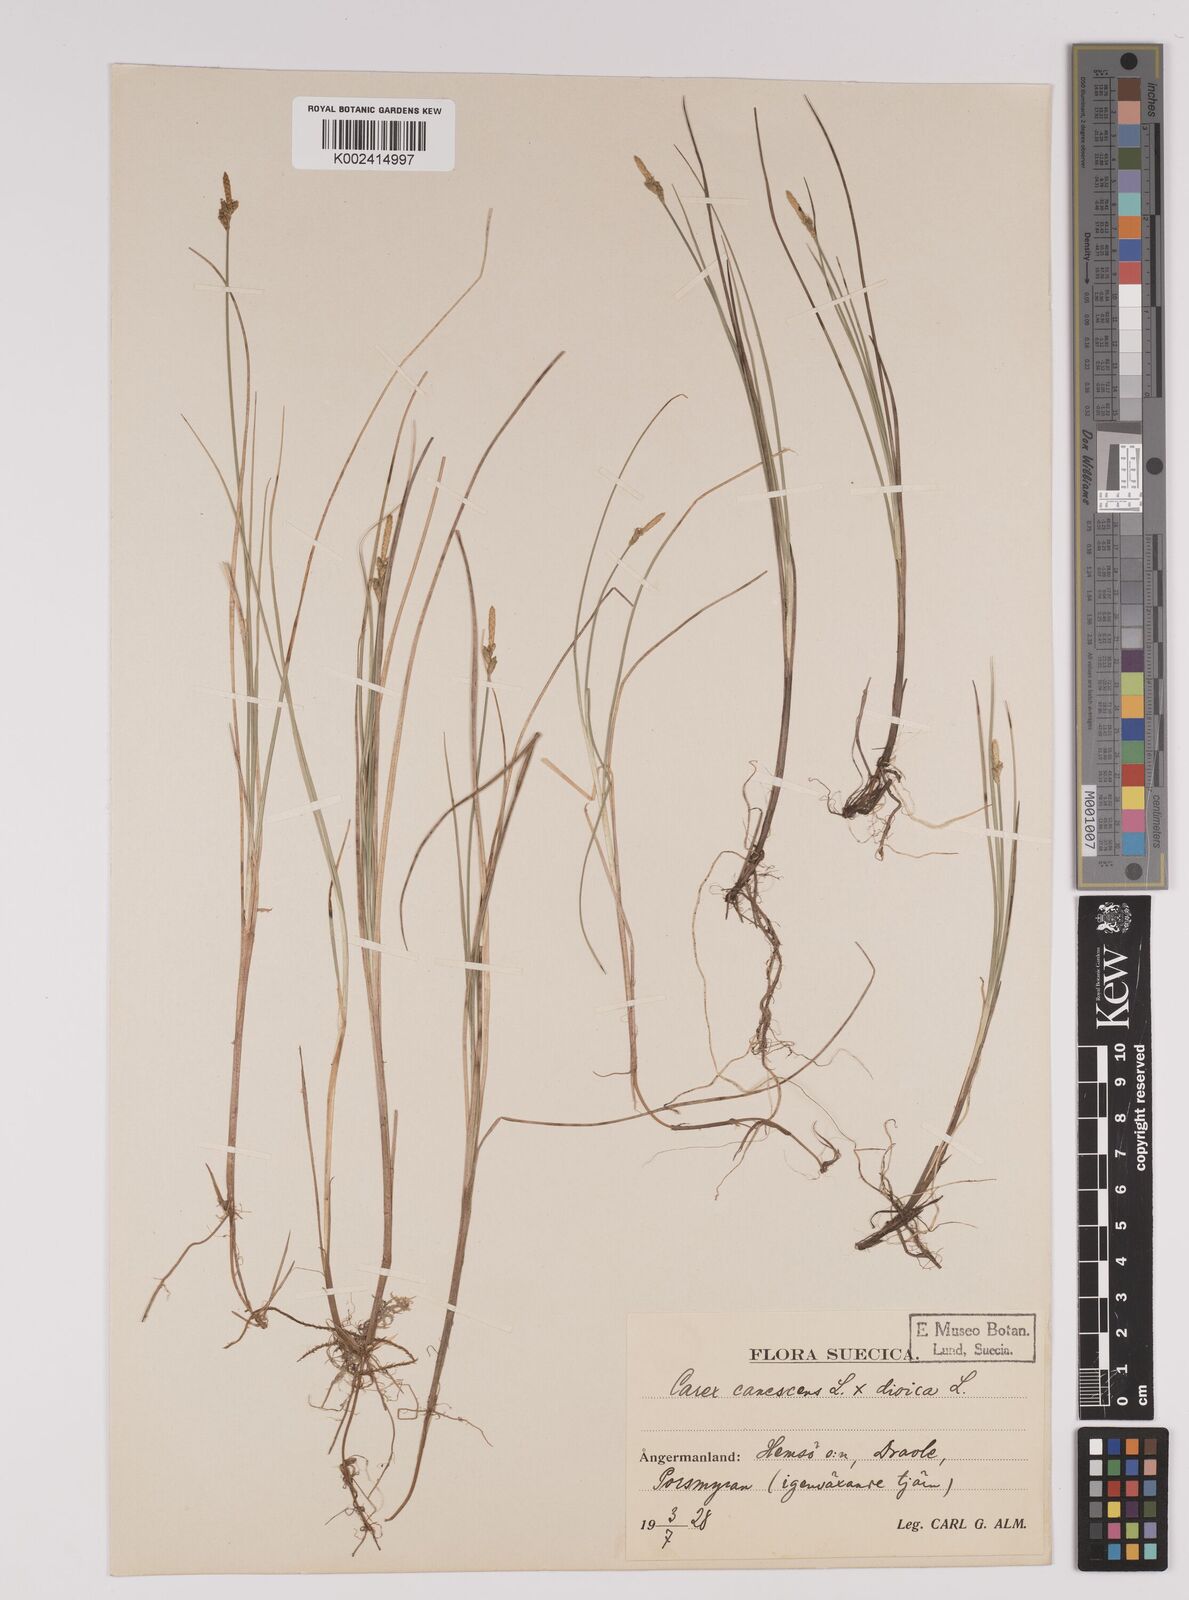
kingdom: Plantae
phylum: Tracheophyta
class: Liliopsida
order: Poales
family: Cyperaceae
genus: Carex
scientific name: Carex dioica
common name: Dioecious sedge
